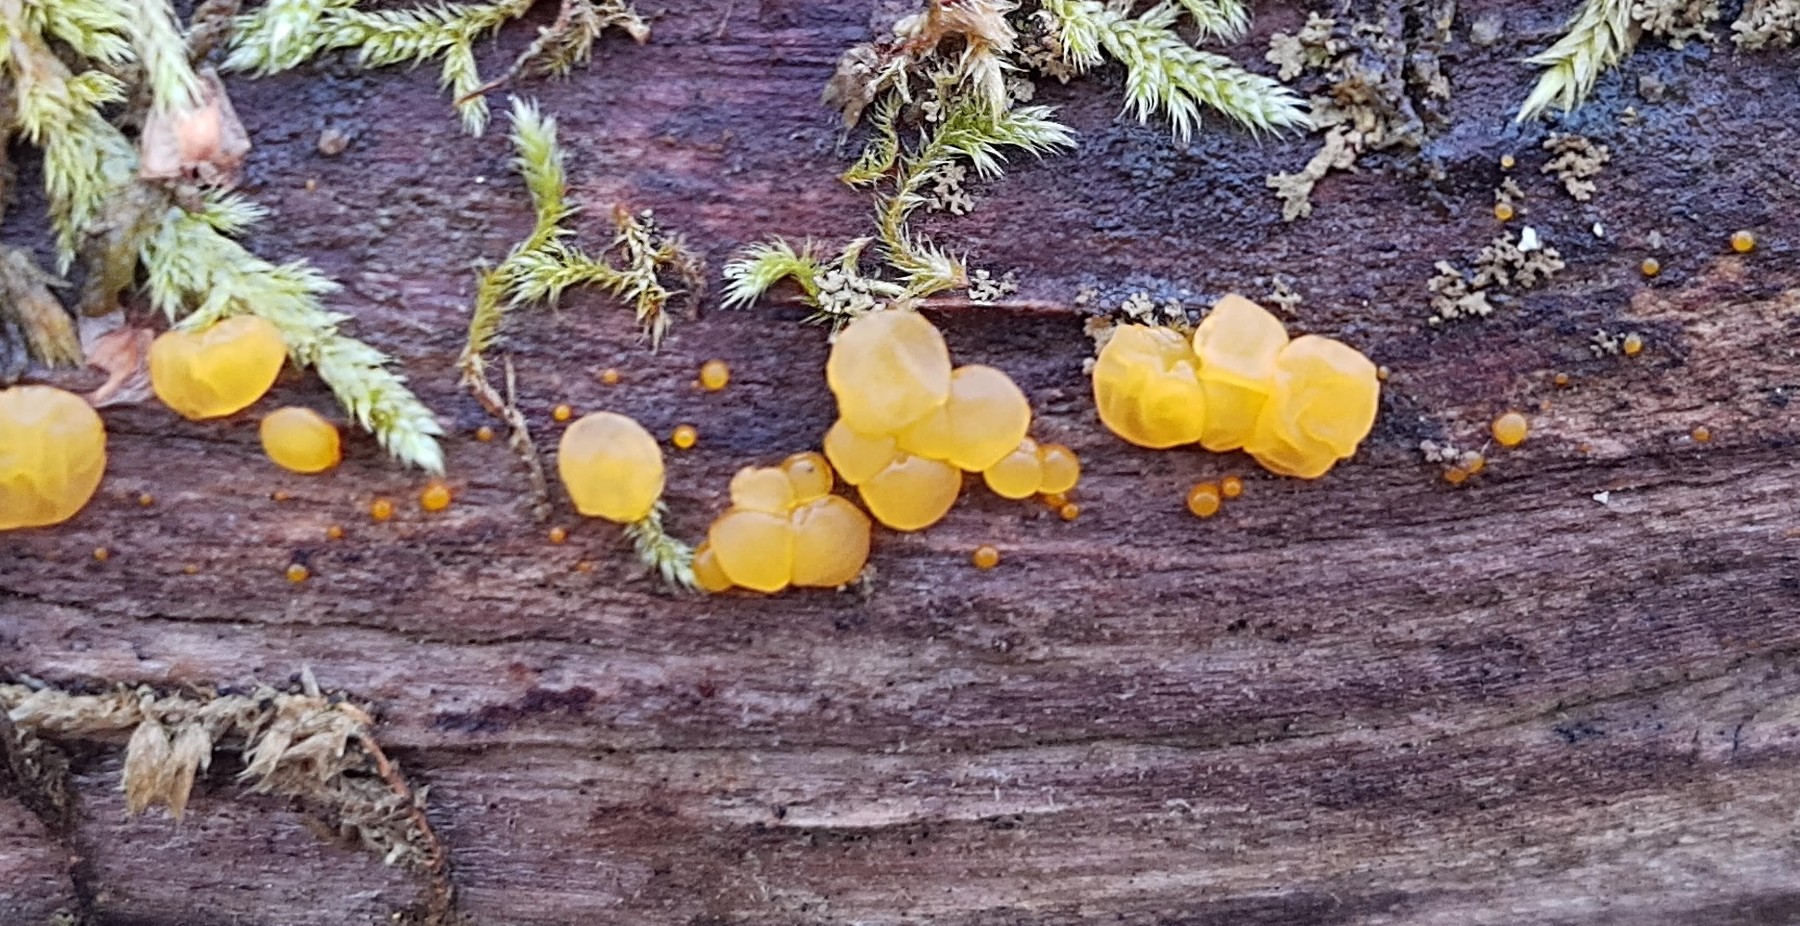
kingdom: Fungi
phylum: Basidiomycota
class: Dacrymycetes
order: Dacrymycetales
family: Dacrymycetaceae
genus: Dacrymyces
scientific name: Dacrymyces lacrymalis
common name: rynket tåresvamp
